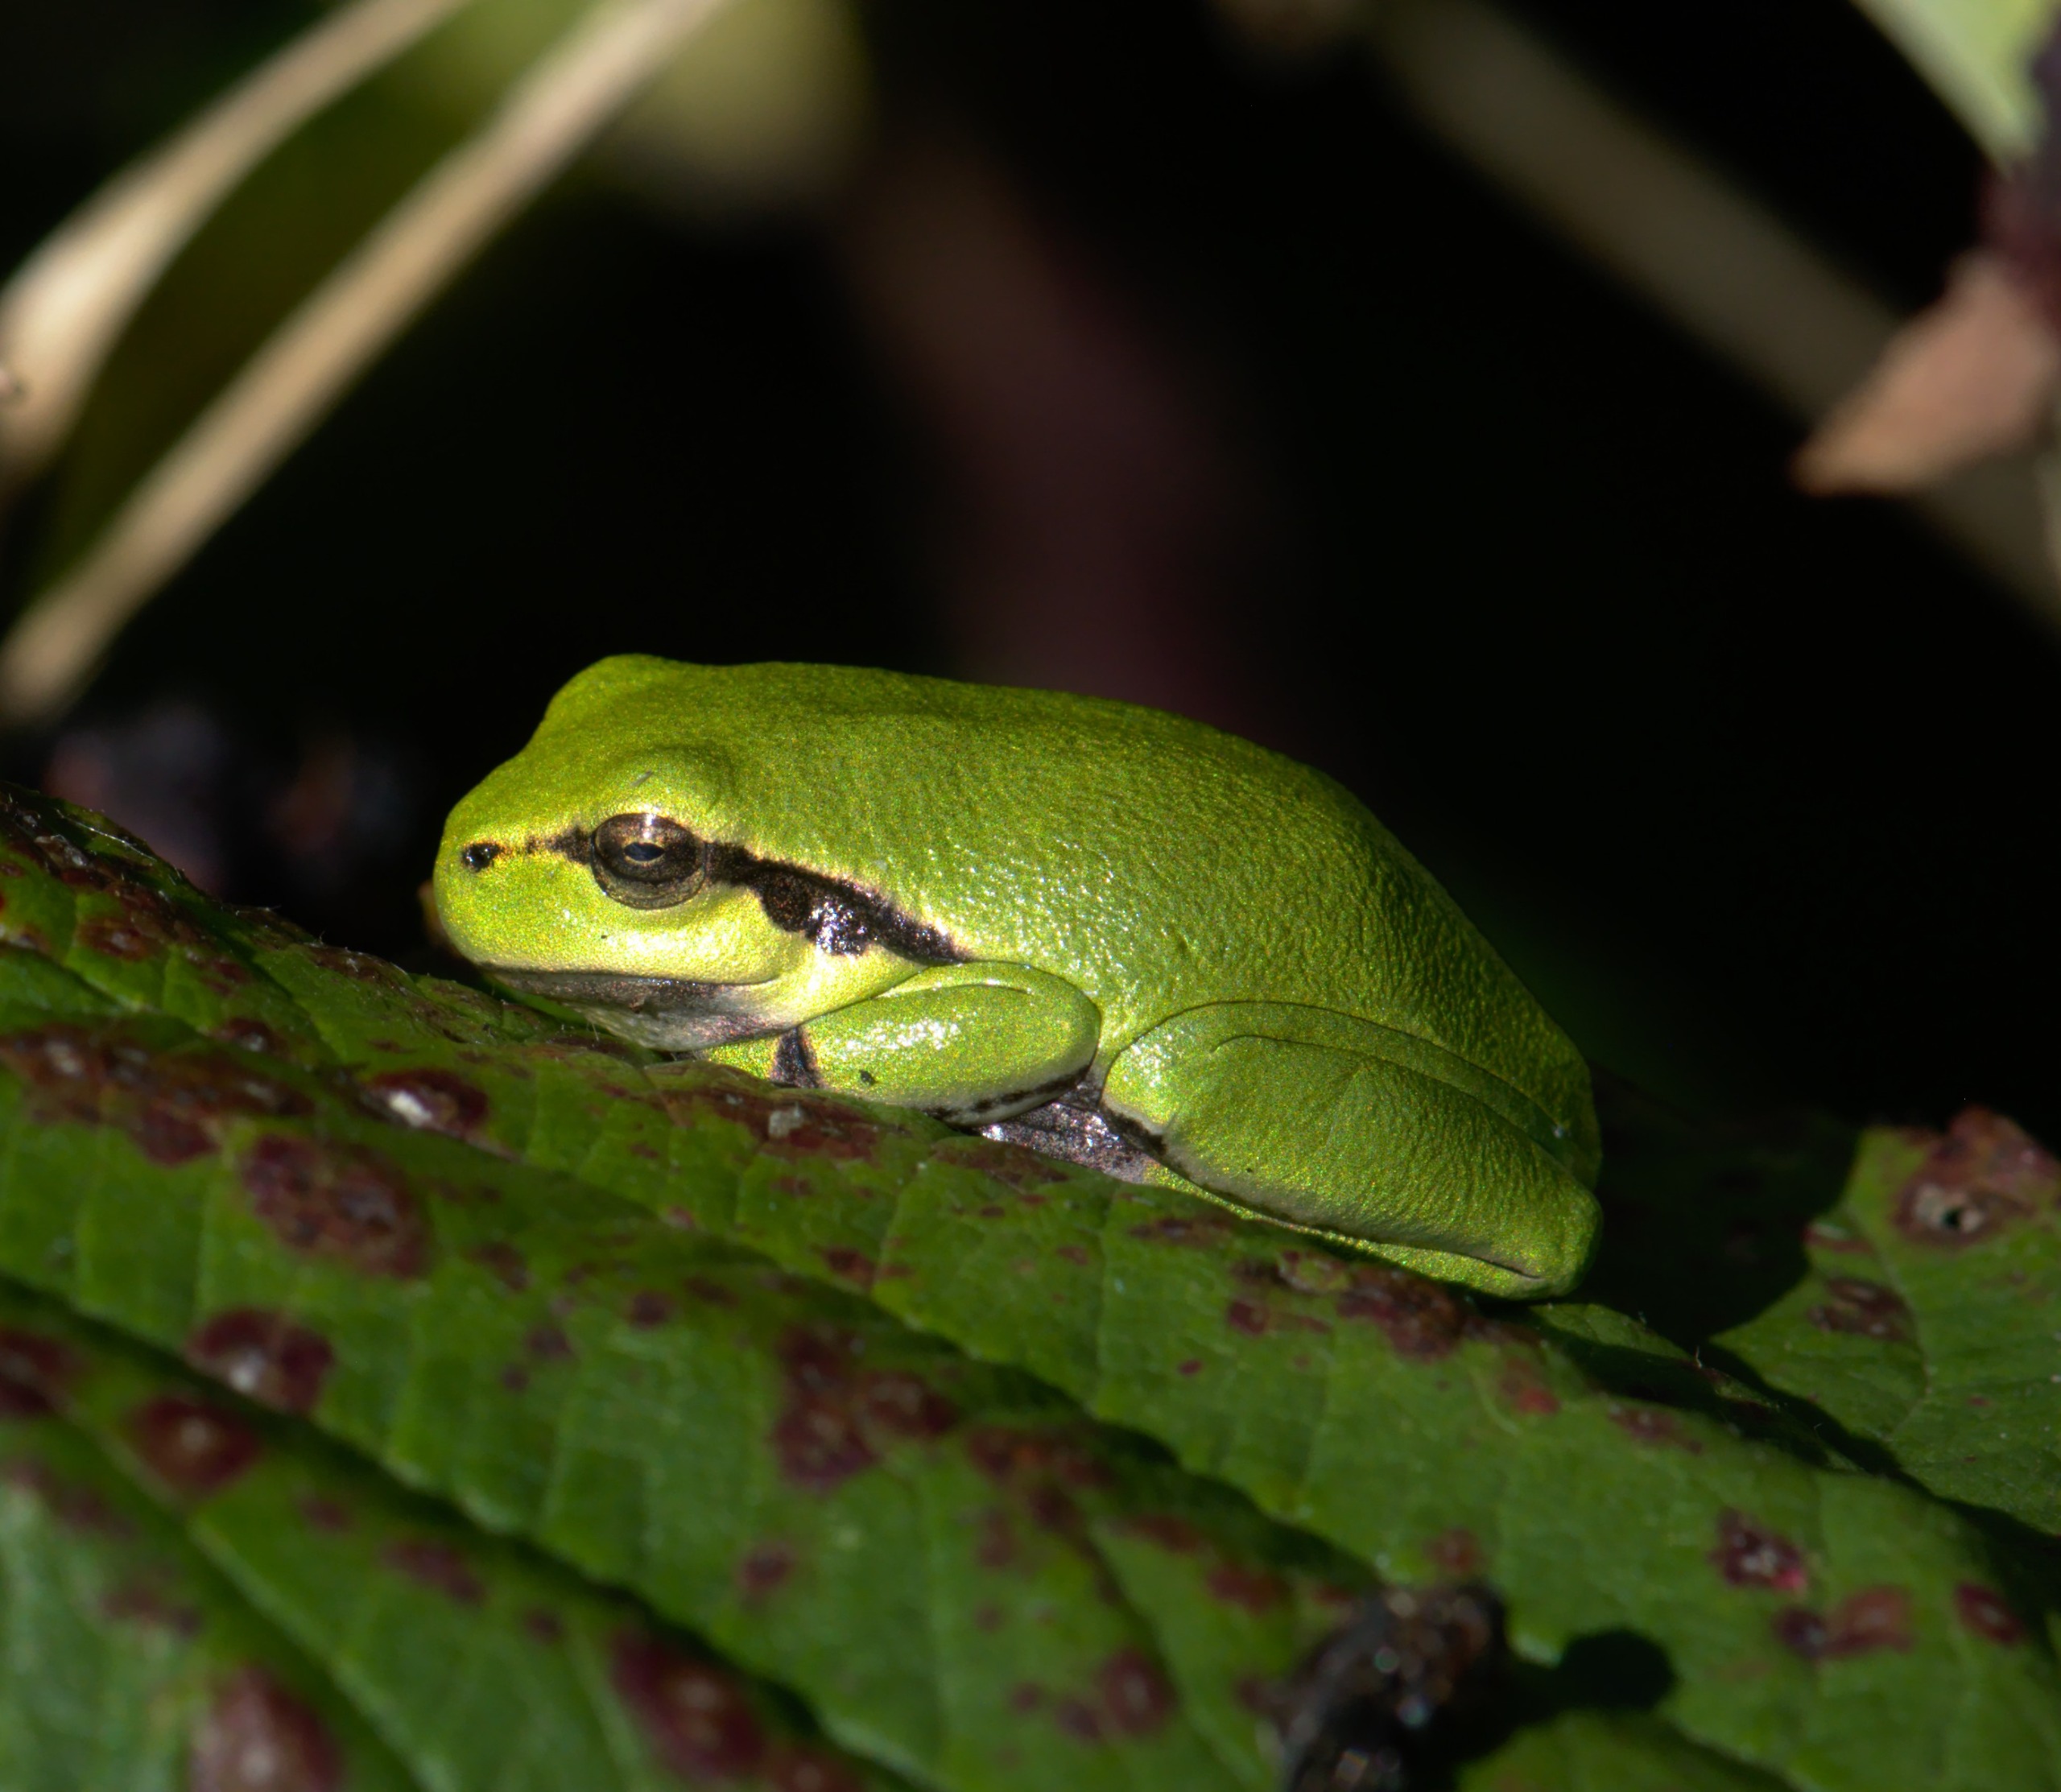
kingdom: Animalia
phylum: Chordata
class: Amphibia
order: Anura
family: Hylidae
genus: Hyla
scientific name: Hyla arborea
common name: Løvfrø
